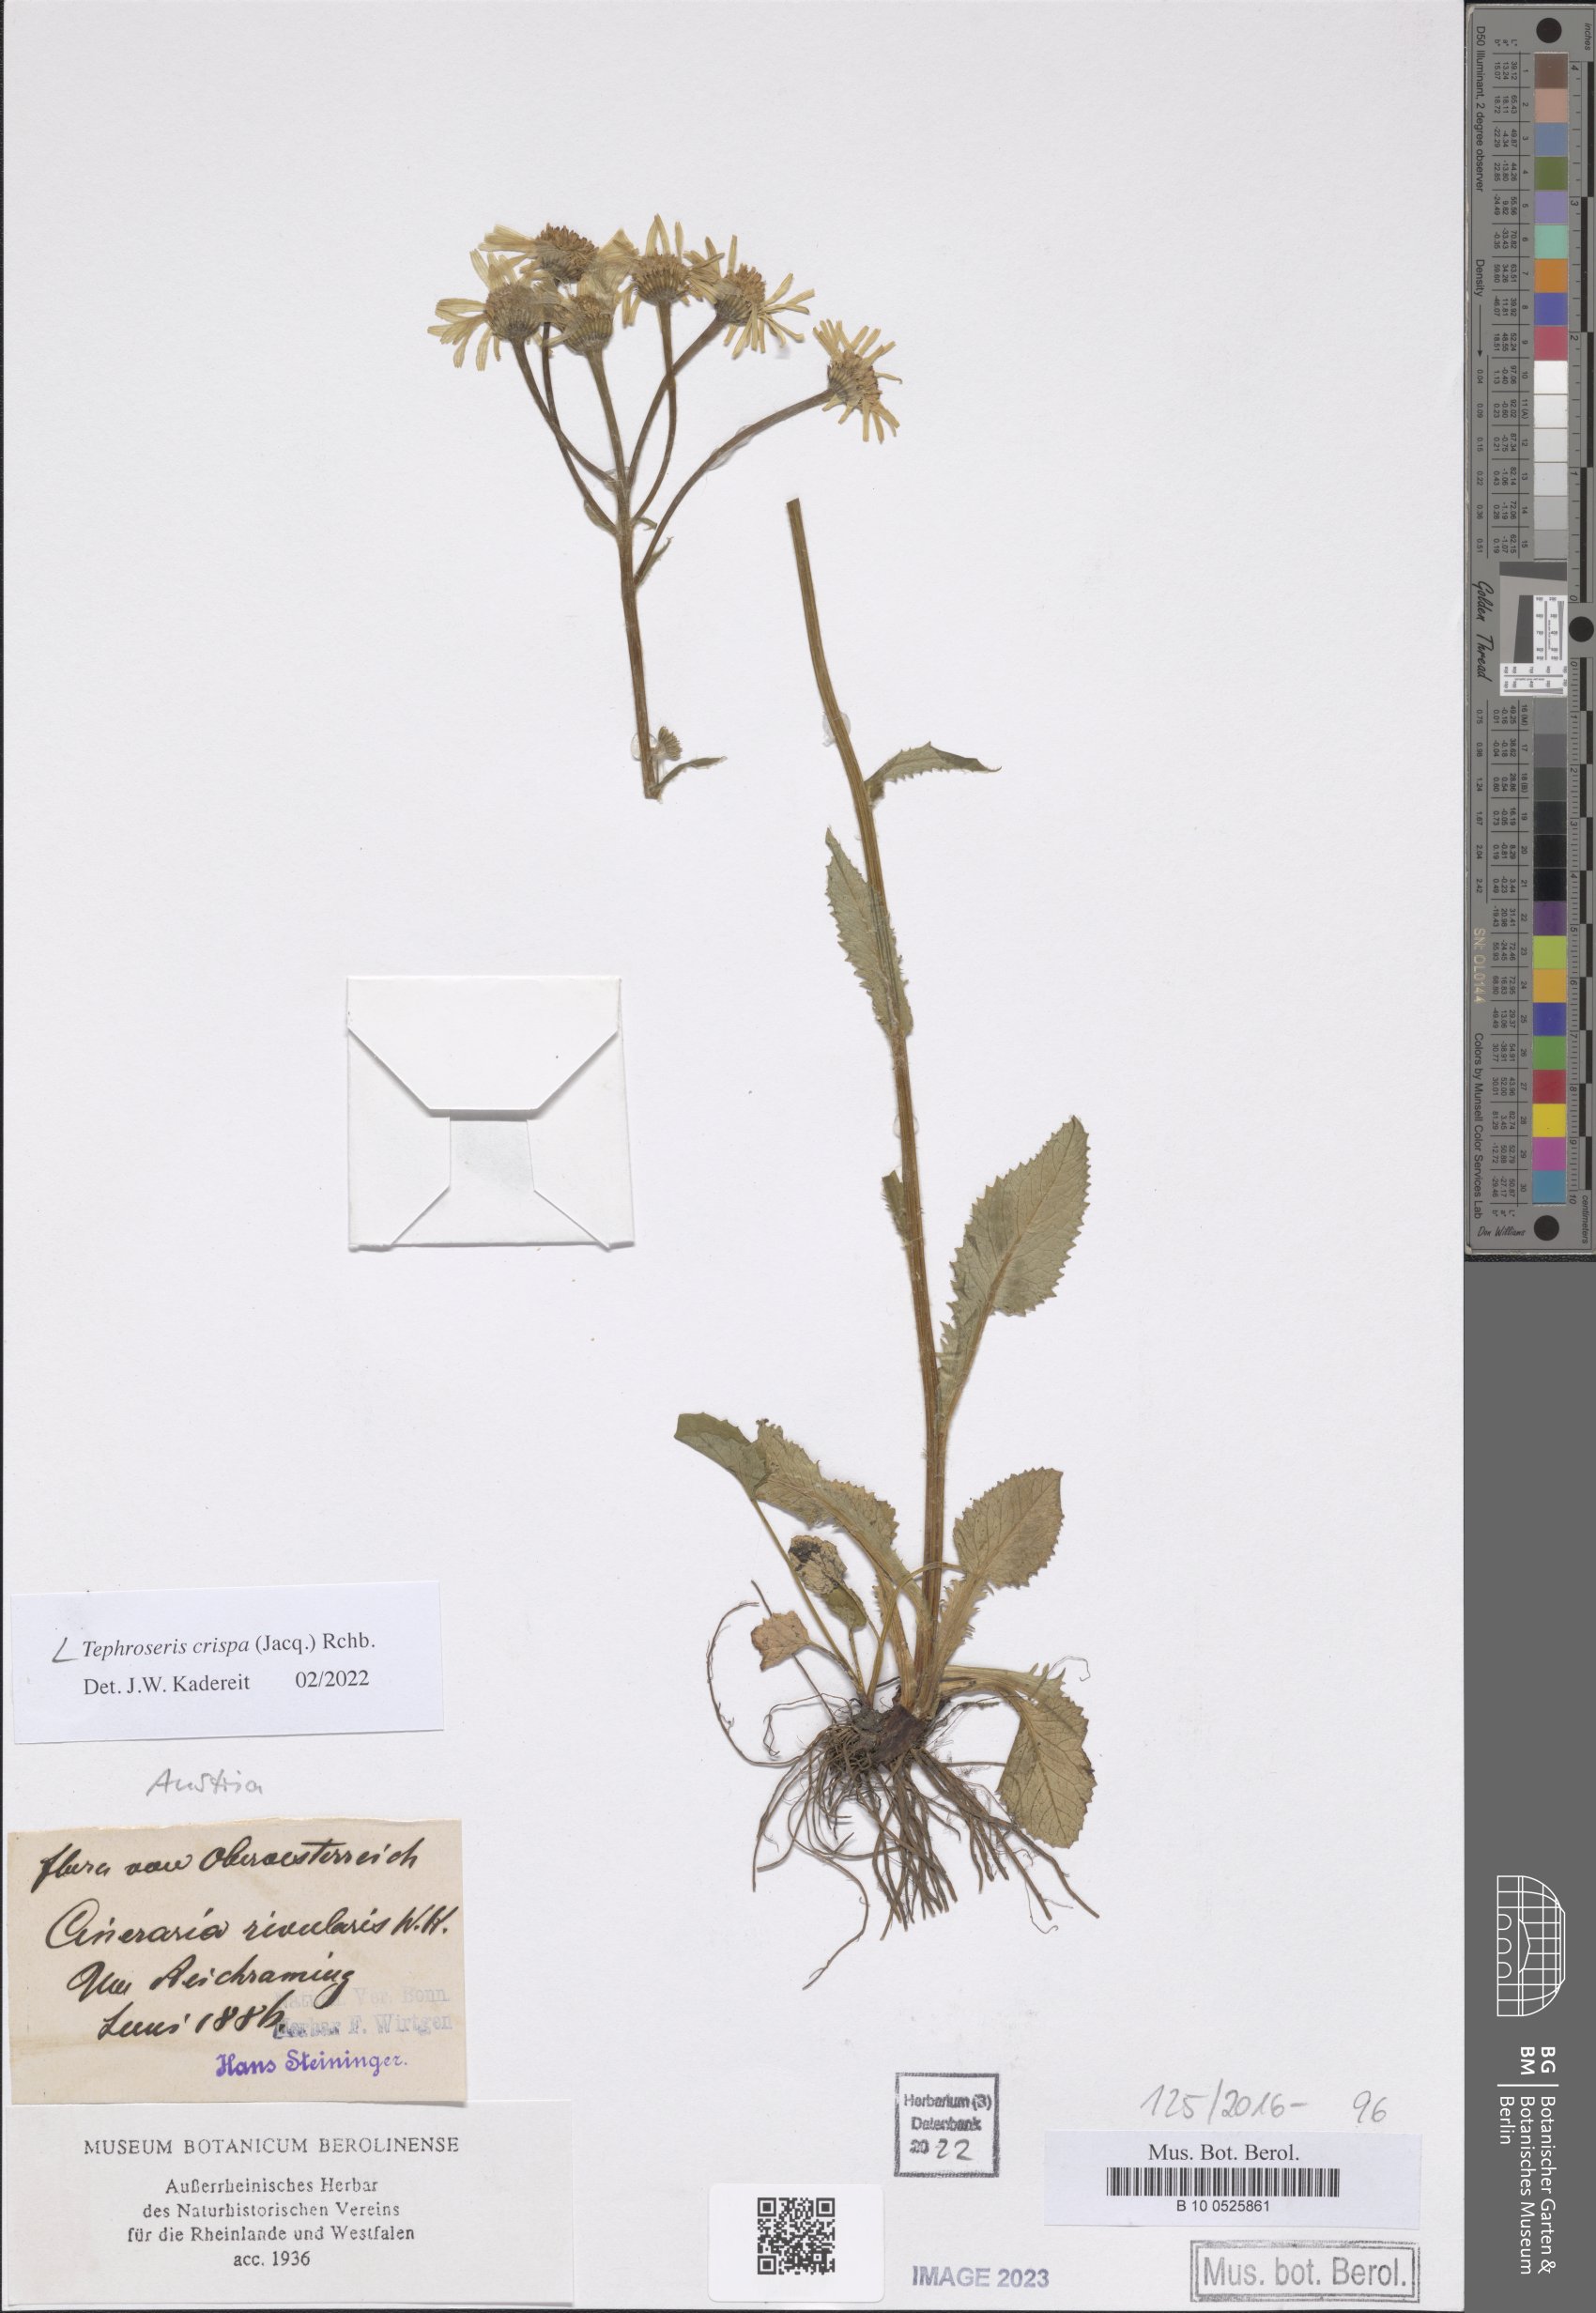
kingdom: Plantae
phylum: Tracheophyta
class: Magnoliopsida
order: Asterales
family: Asteraceae
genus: Tephroseris
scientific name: Tephroseris crispa
